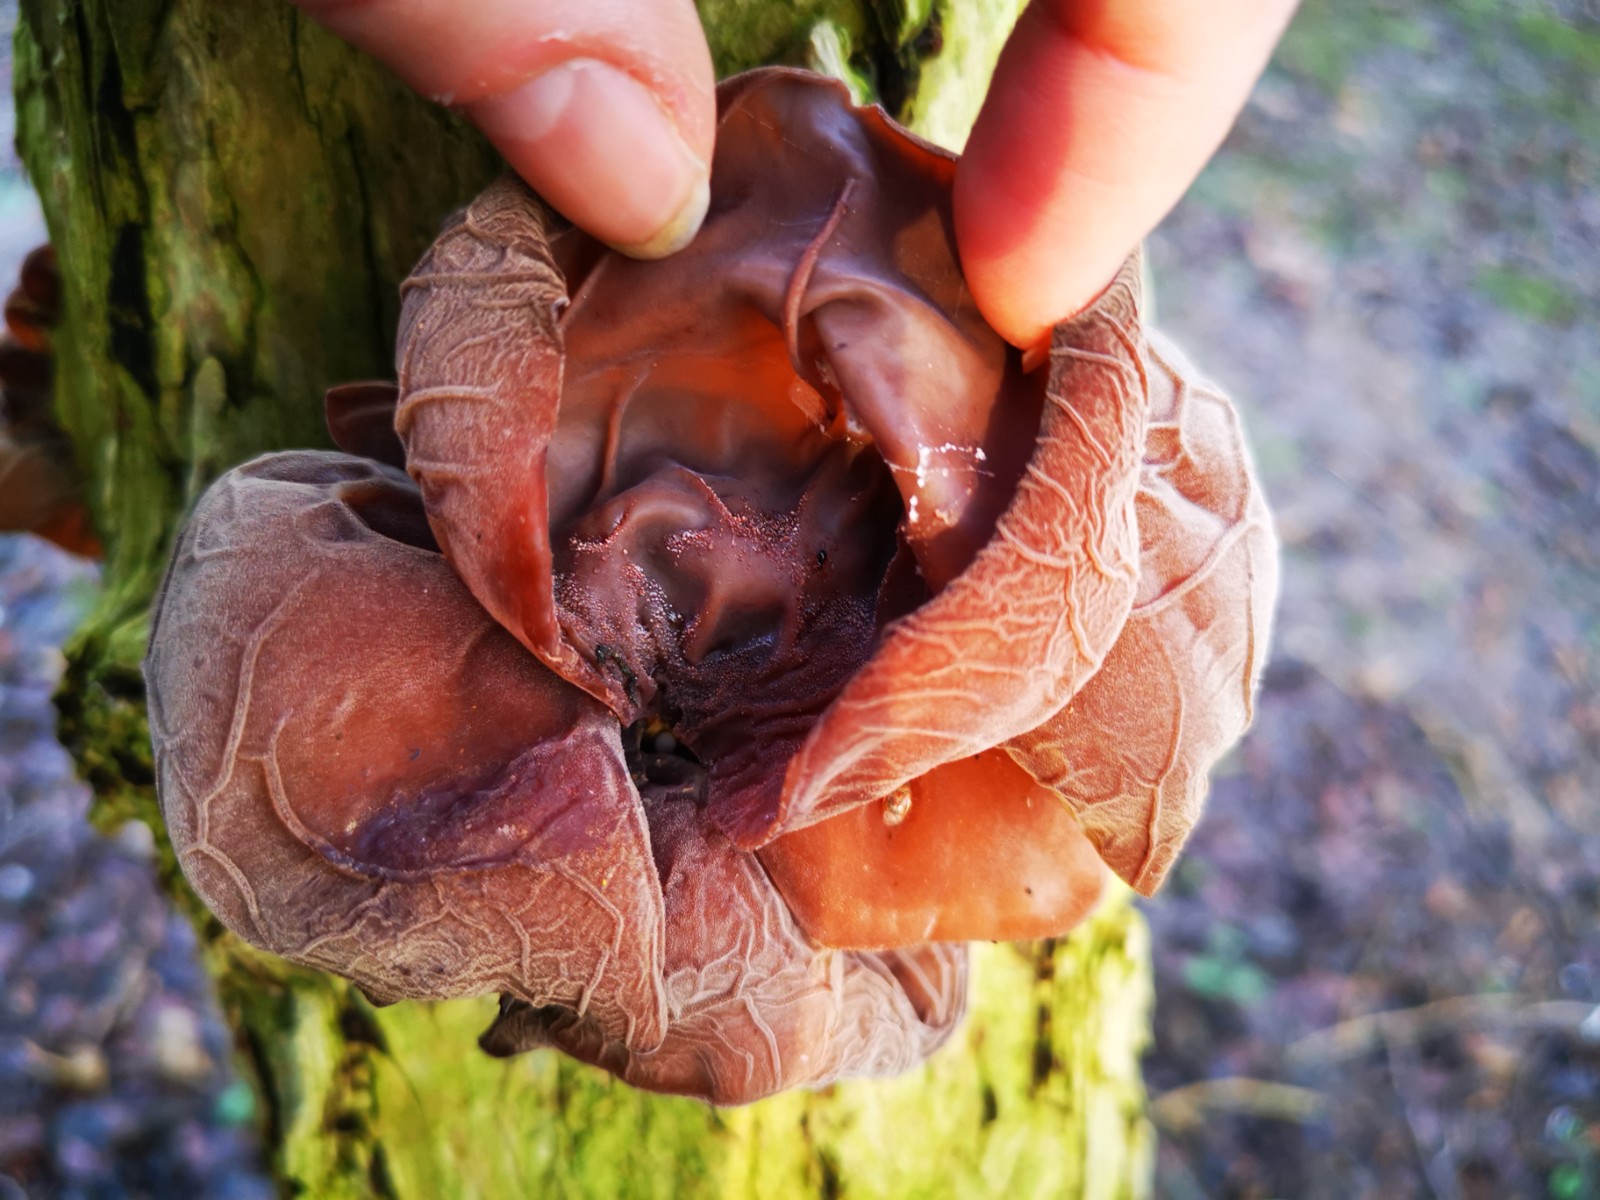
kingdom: Fungi
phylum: Basidiomycota
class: Agaricomycetes
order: Auriculariales
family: Auriculariaceae
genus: Auricularia
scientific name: Auricularia auricula-judae
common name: almindelig judasøre
